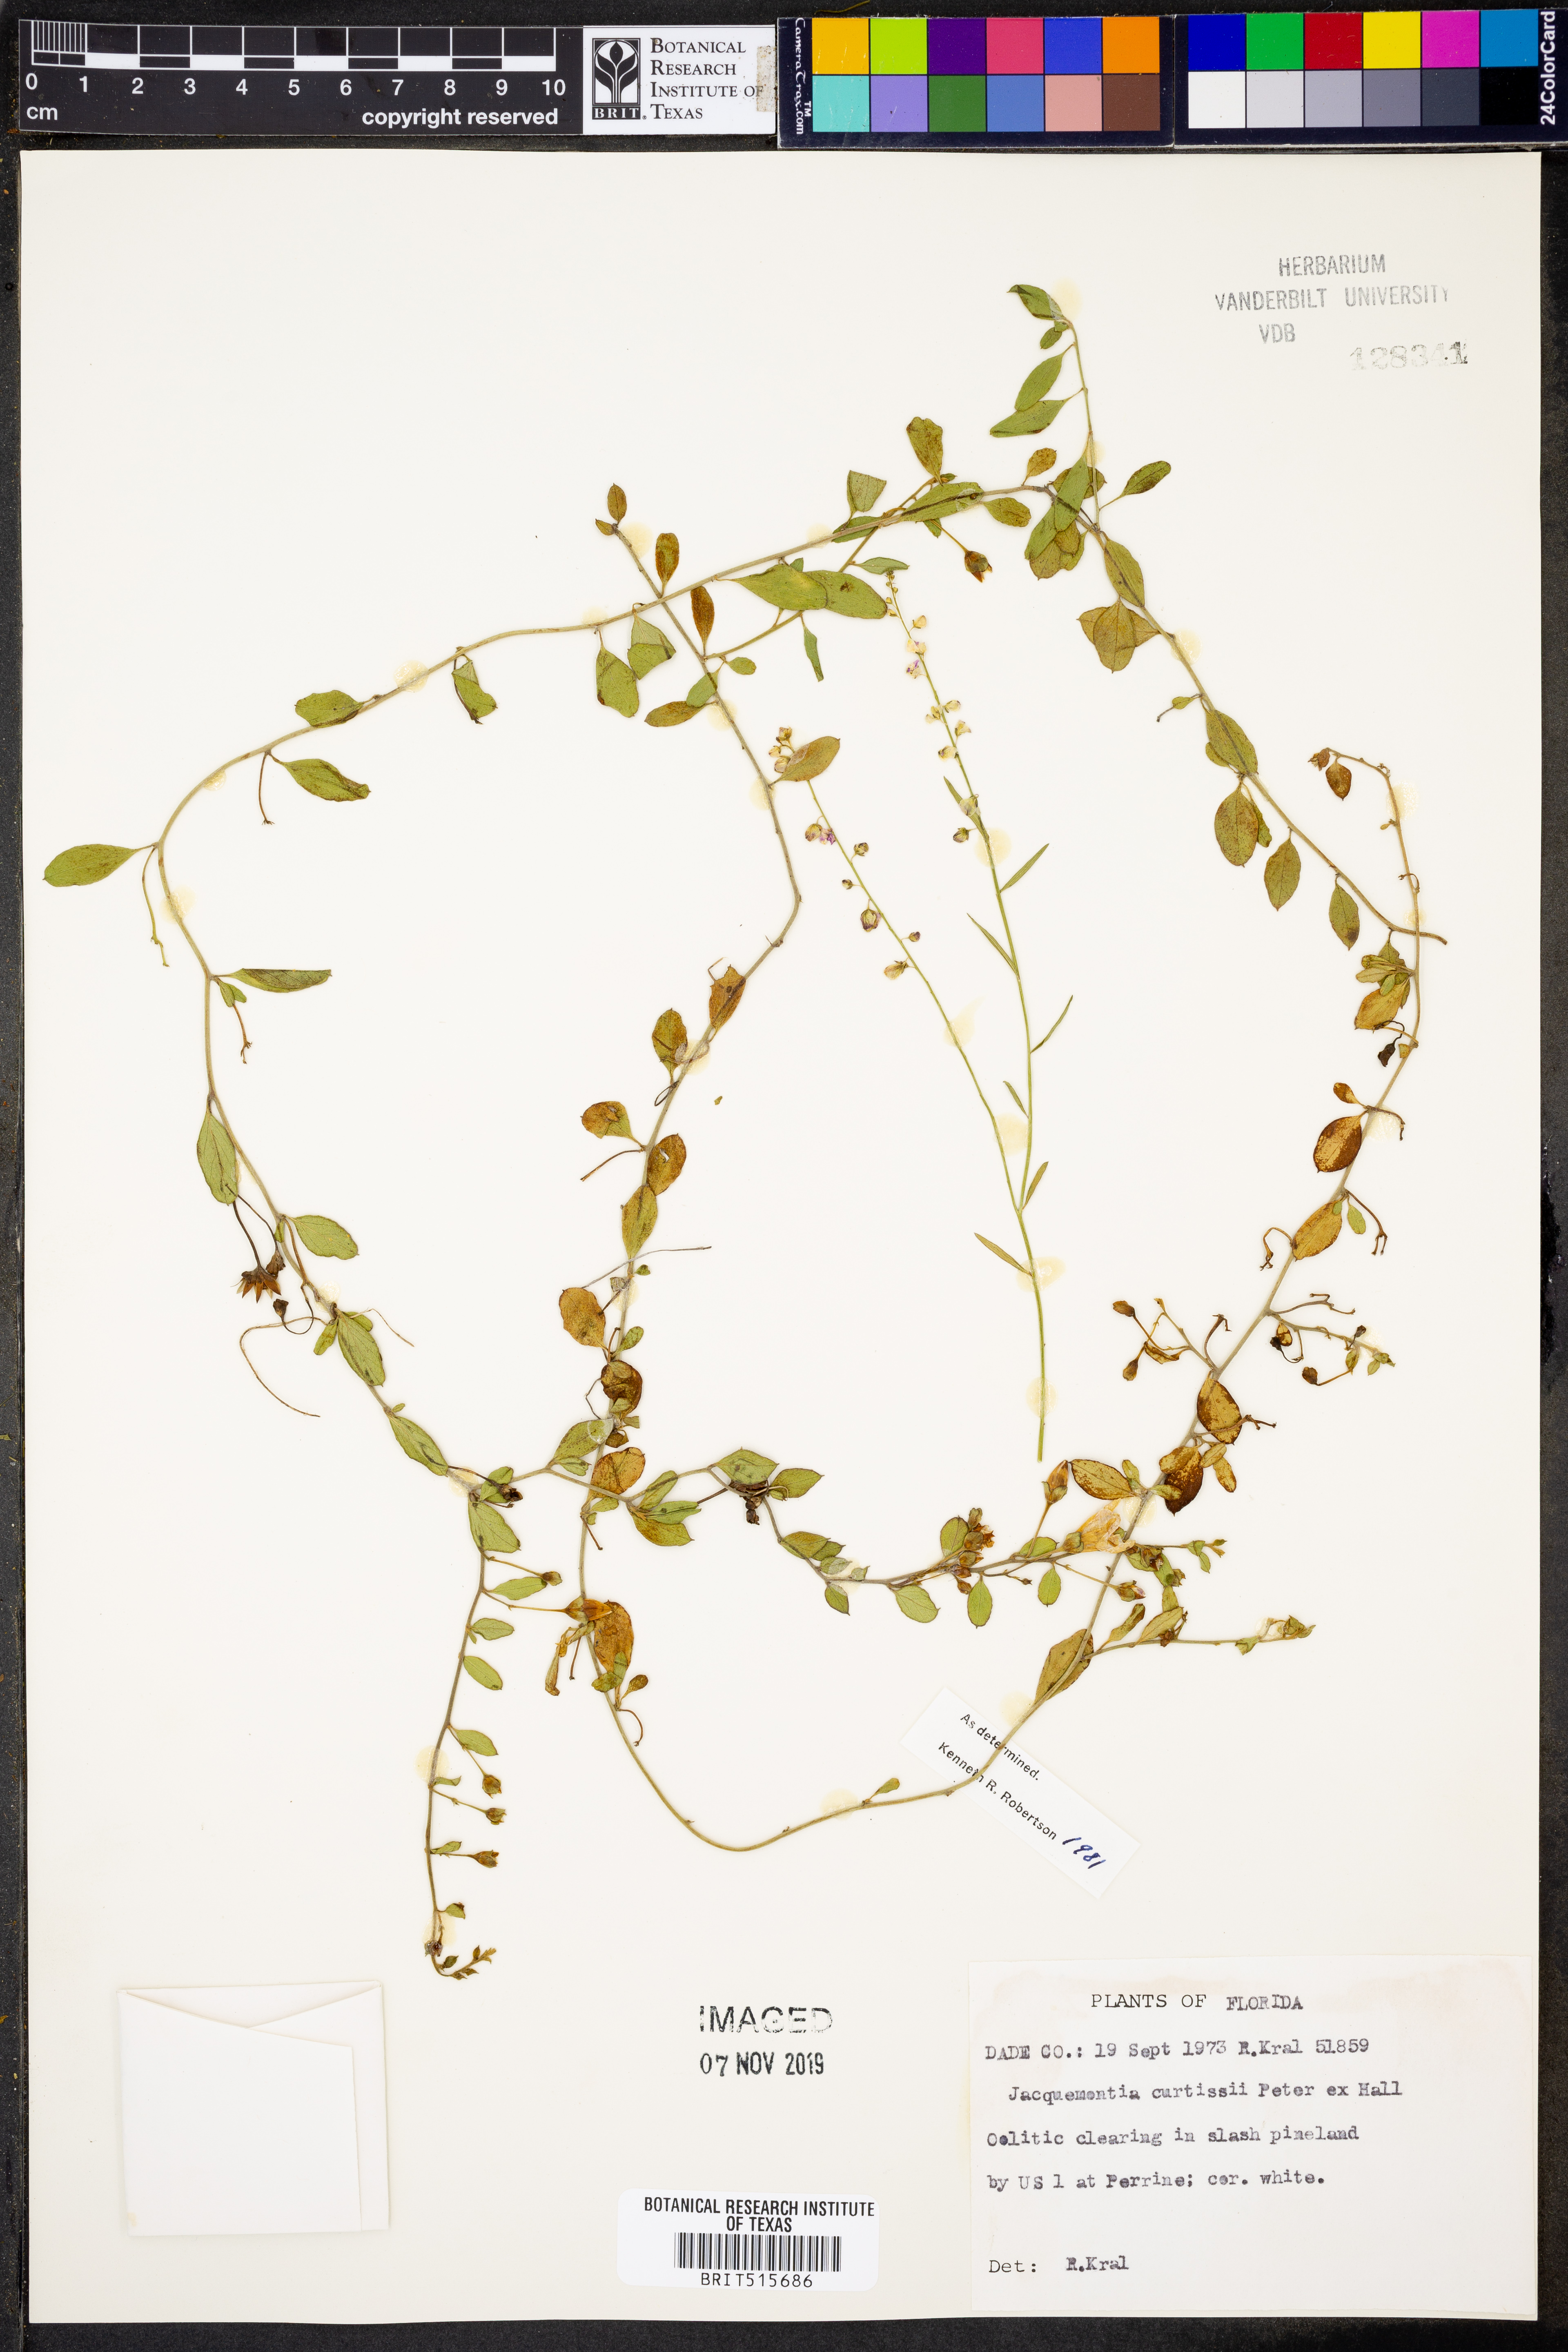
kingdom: Plantae
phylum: Tracheophyta
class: Magnoliopsida
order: Solanales
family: Convolvulaceae
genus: Jacquemontia
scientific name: Jacquemontia curtissii
